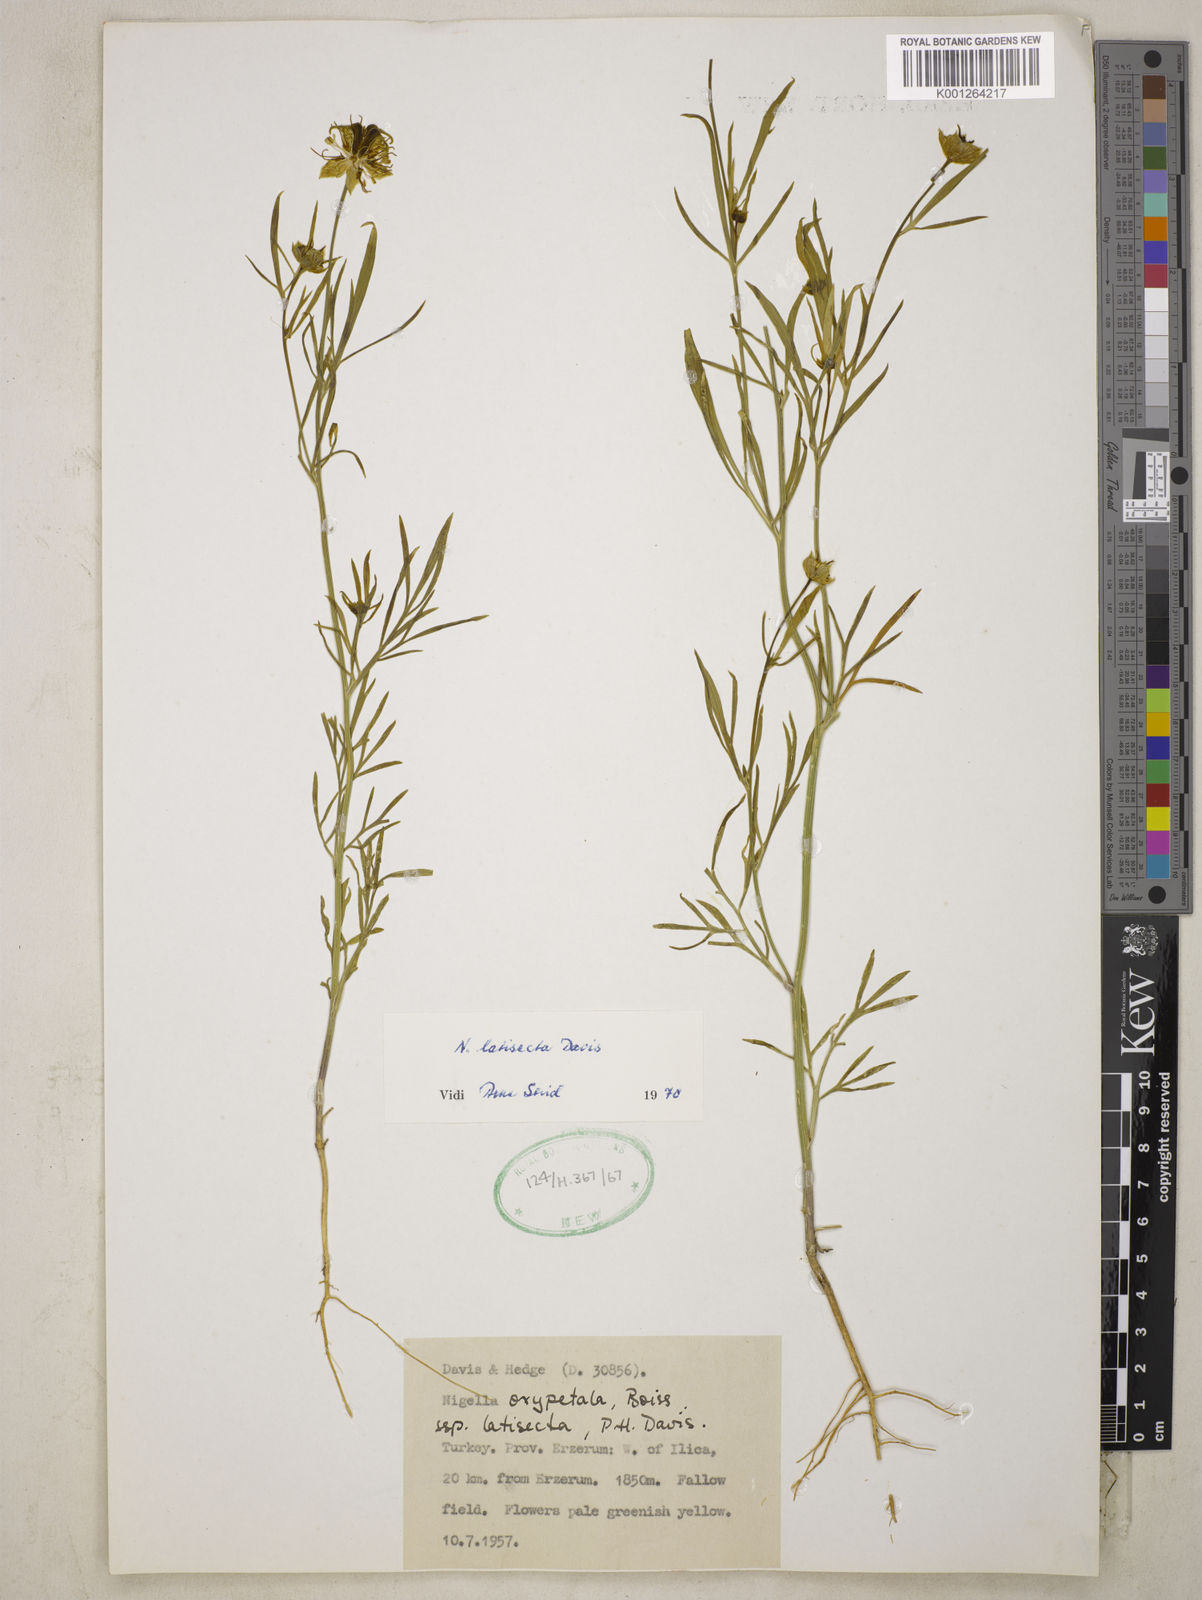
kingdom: Plantae
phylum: Tracheophyta
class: Magnoliopsida
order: Ranunculales
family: Ranunculaceae
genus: Nigella
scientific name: Nigella oxypetala
